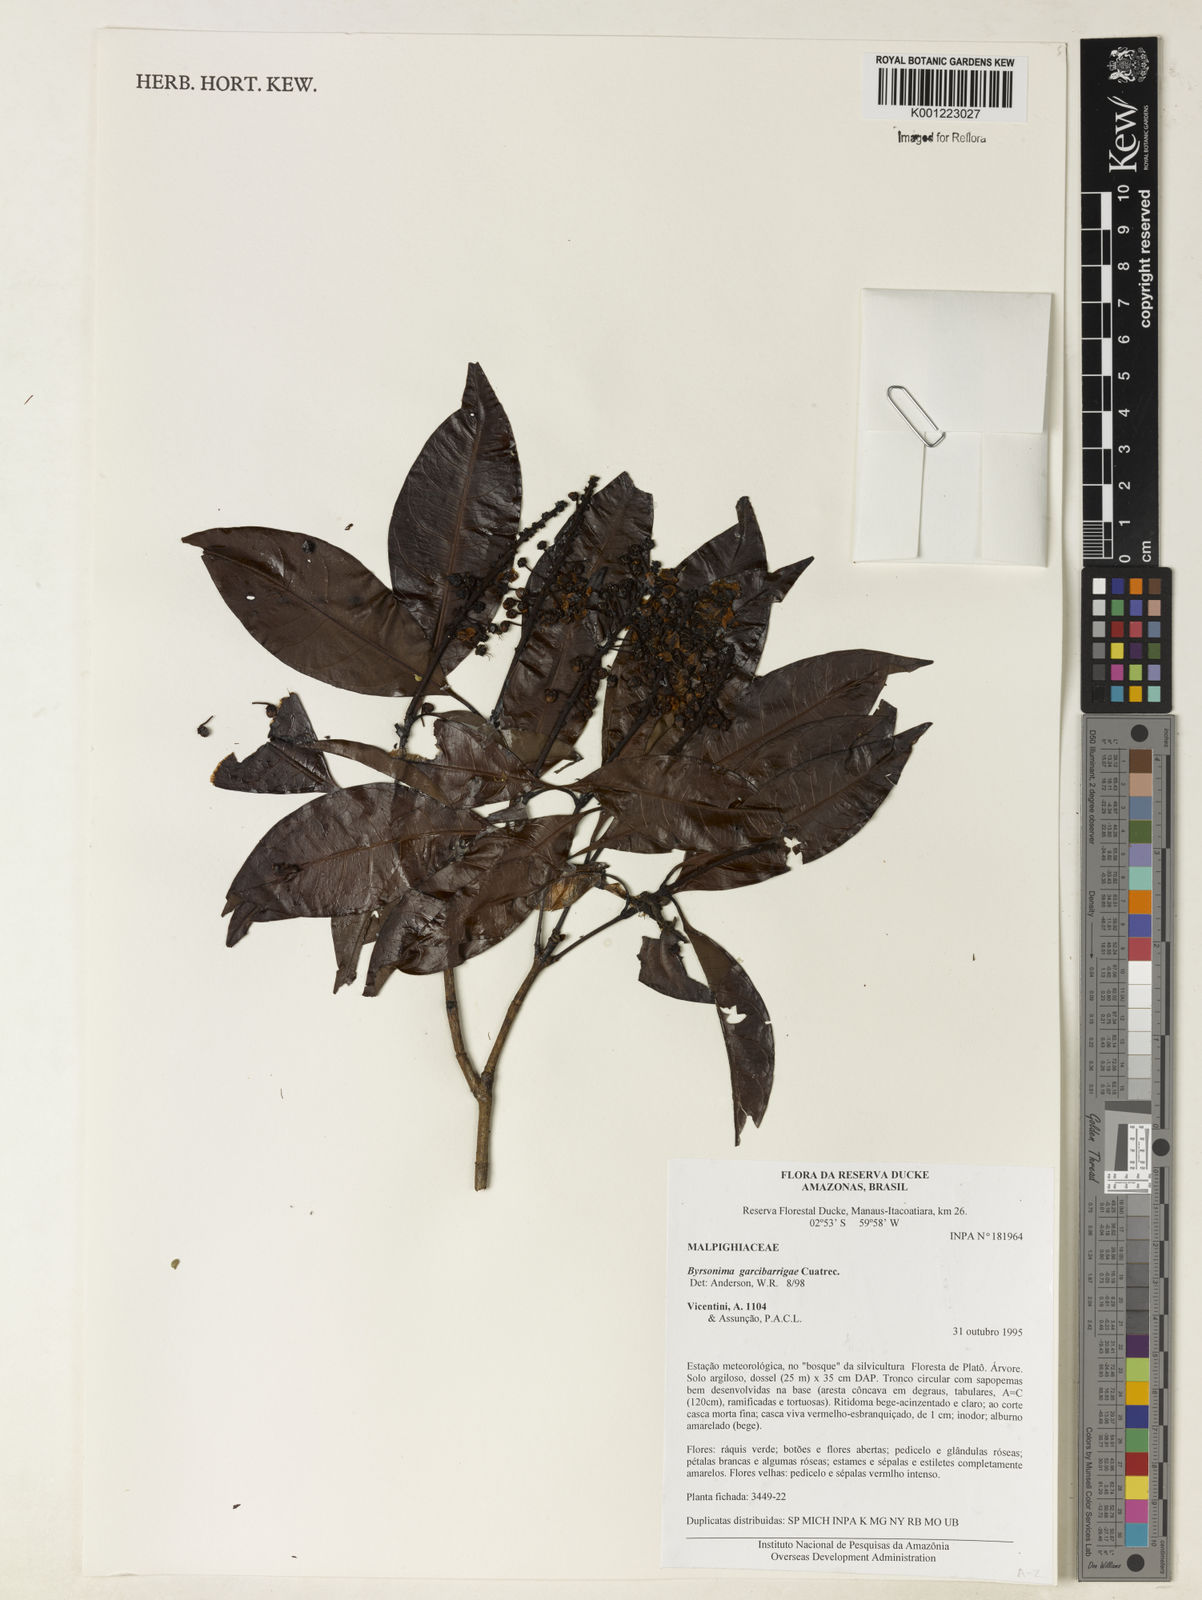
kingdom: Plantae
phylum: Tracheophyta
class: Magnoliopsida
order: Malpighiales
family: Malpighiaceae
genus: Byrsonima
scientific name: Byrsonima garcibarrigae
